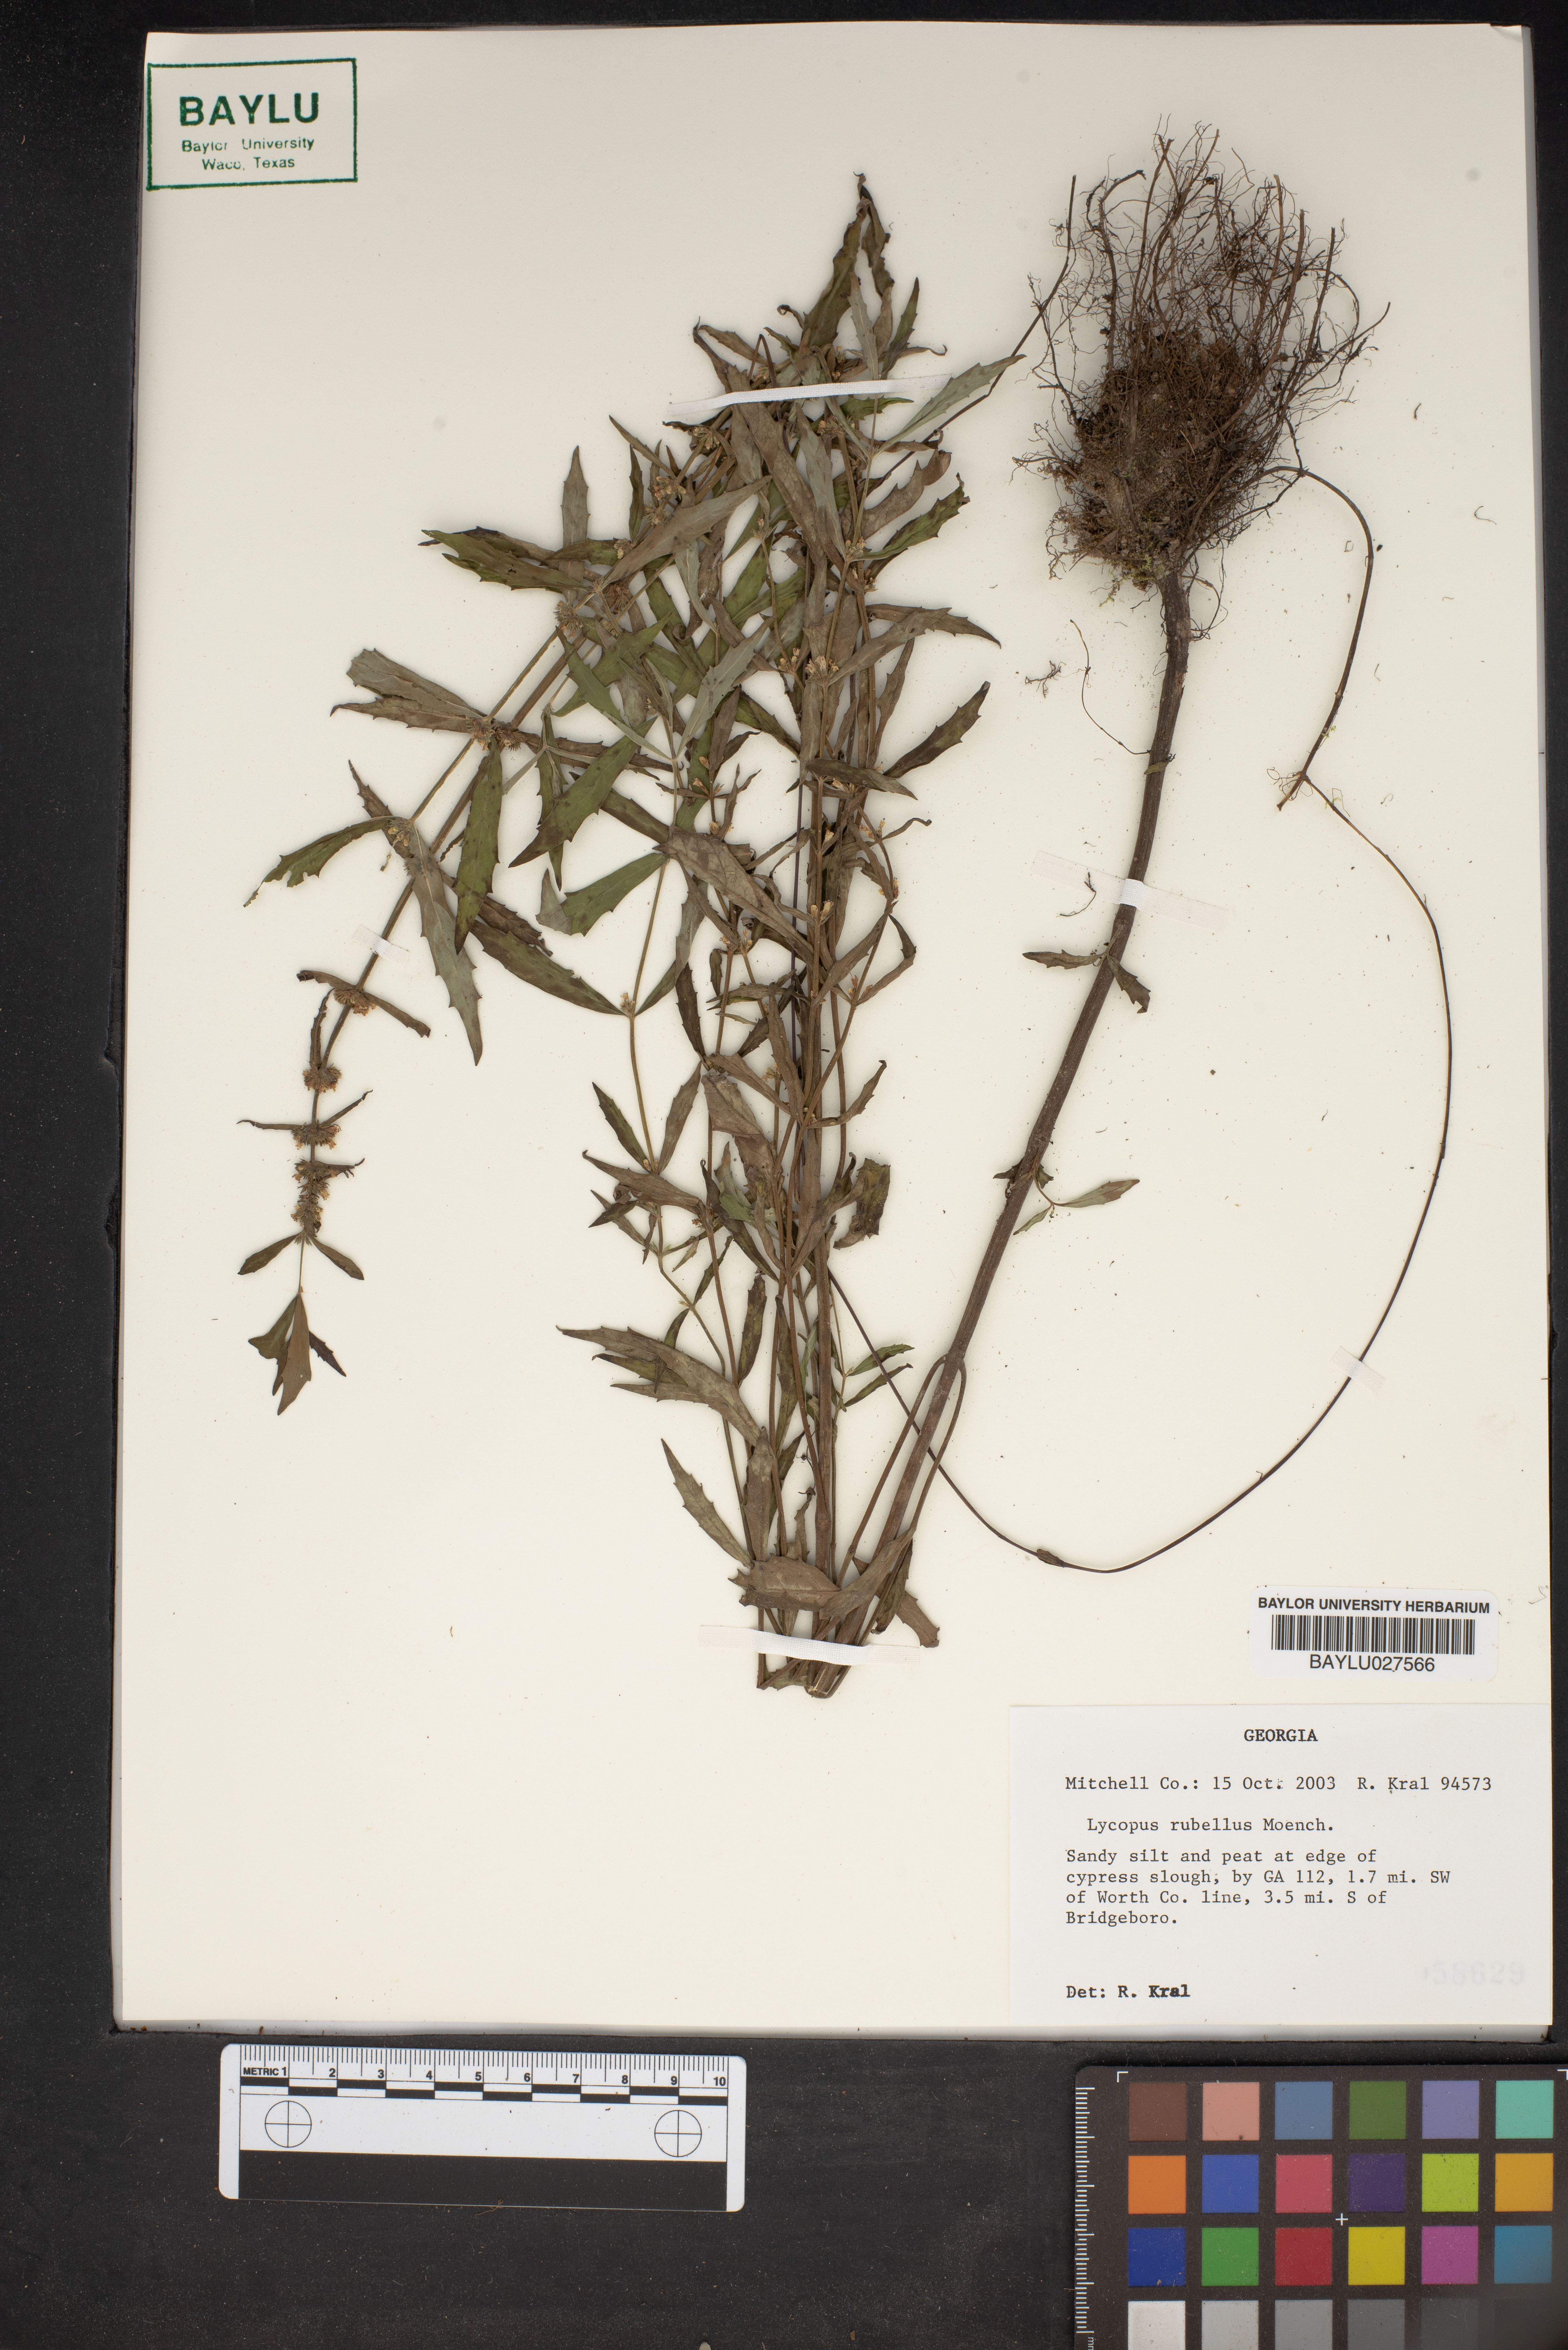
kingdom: Plantae
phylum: Tracheophyta
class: Magnoliopsida
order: Lamiales
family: Lamiaceae
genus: Lycopus
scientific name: Lycopus rubellus
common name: Stalked bugleweed
